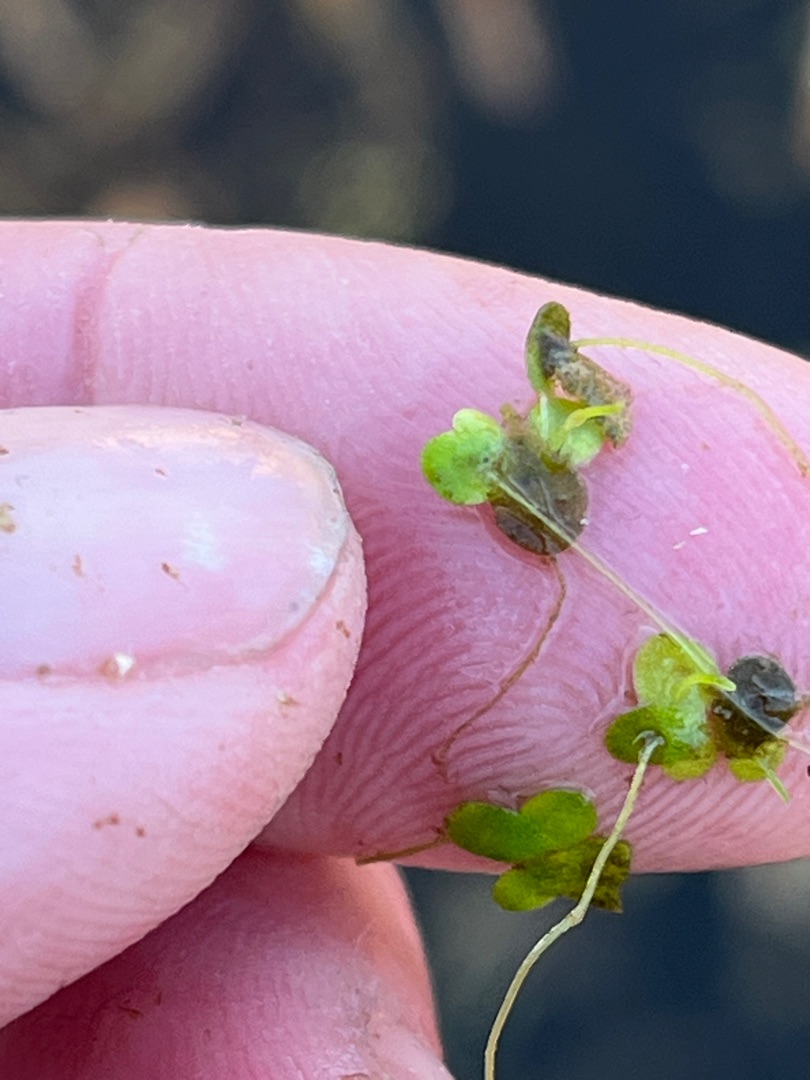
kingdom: Plantae
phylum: Tracheophyta
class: Liliopsida
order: Alismatales
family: Araceae
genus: Lemna
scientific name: Lemna minor
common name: Liden andemad
